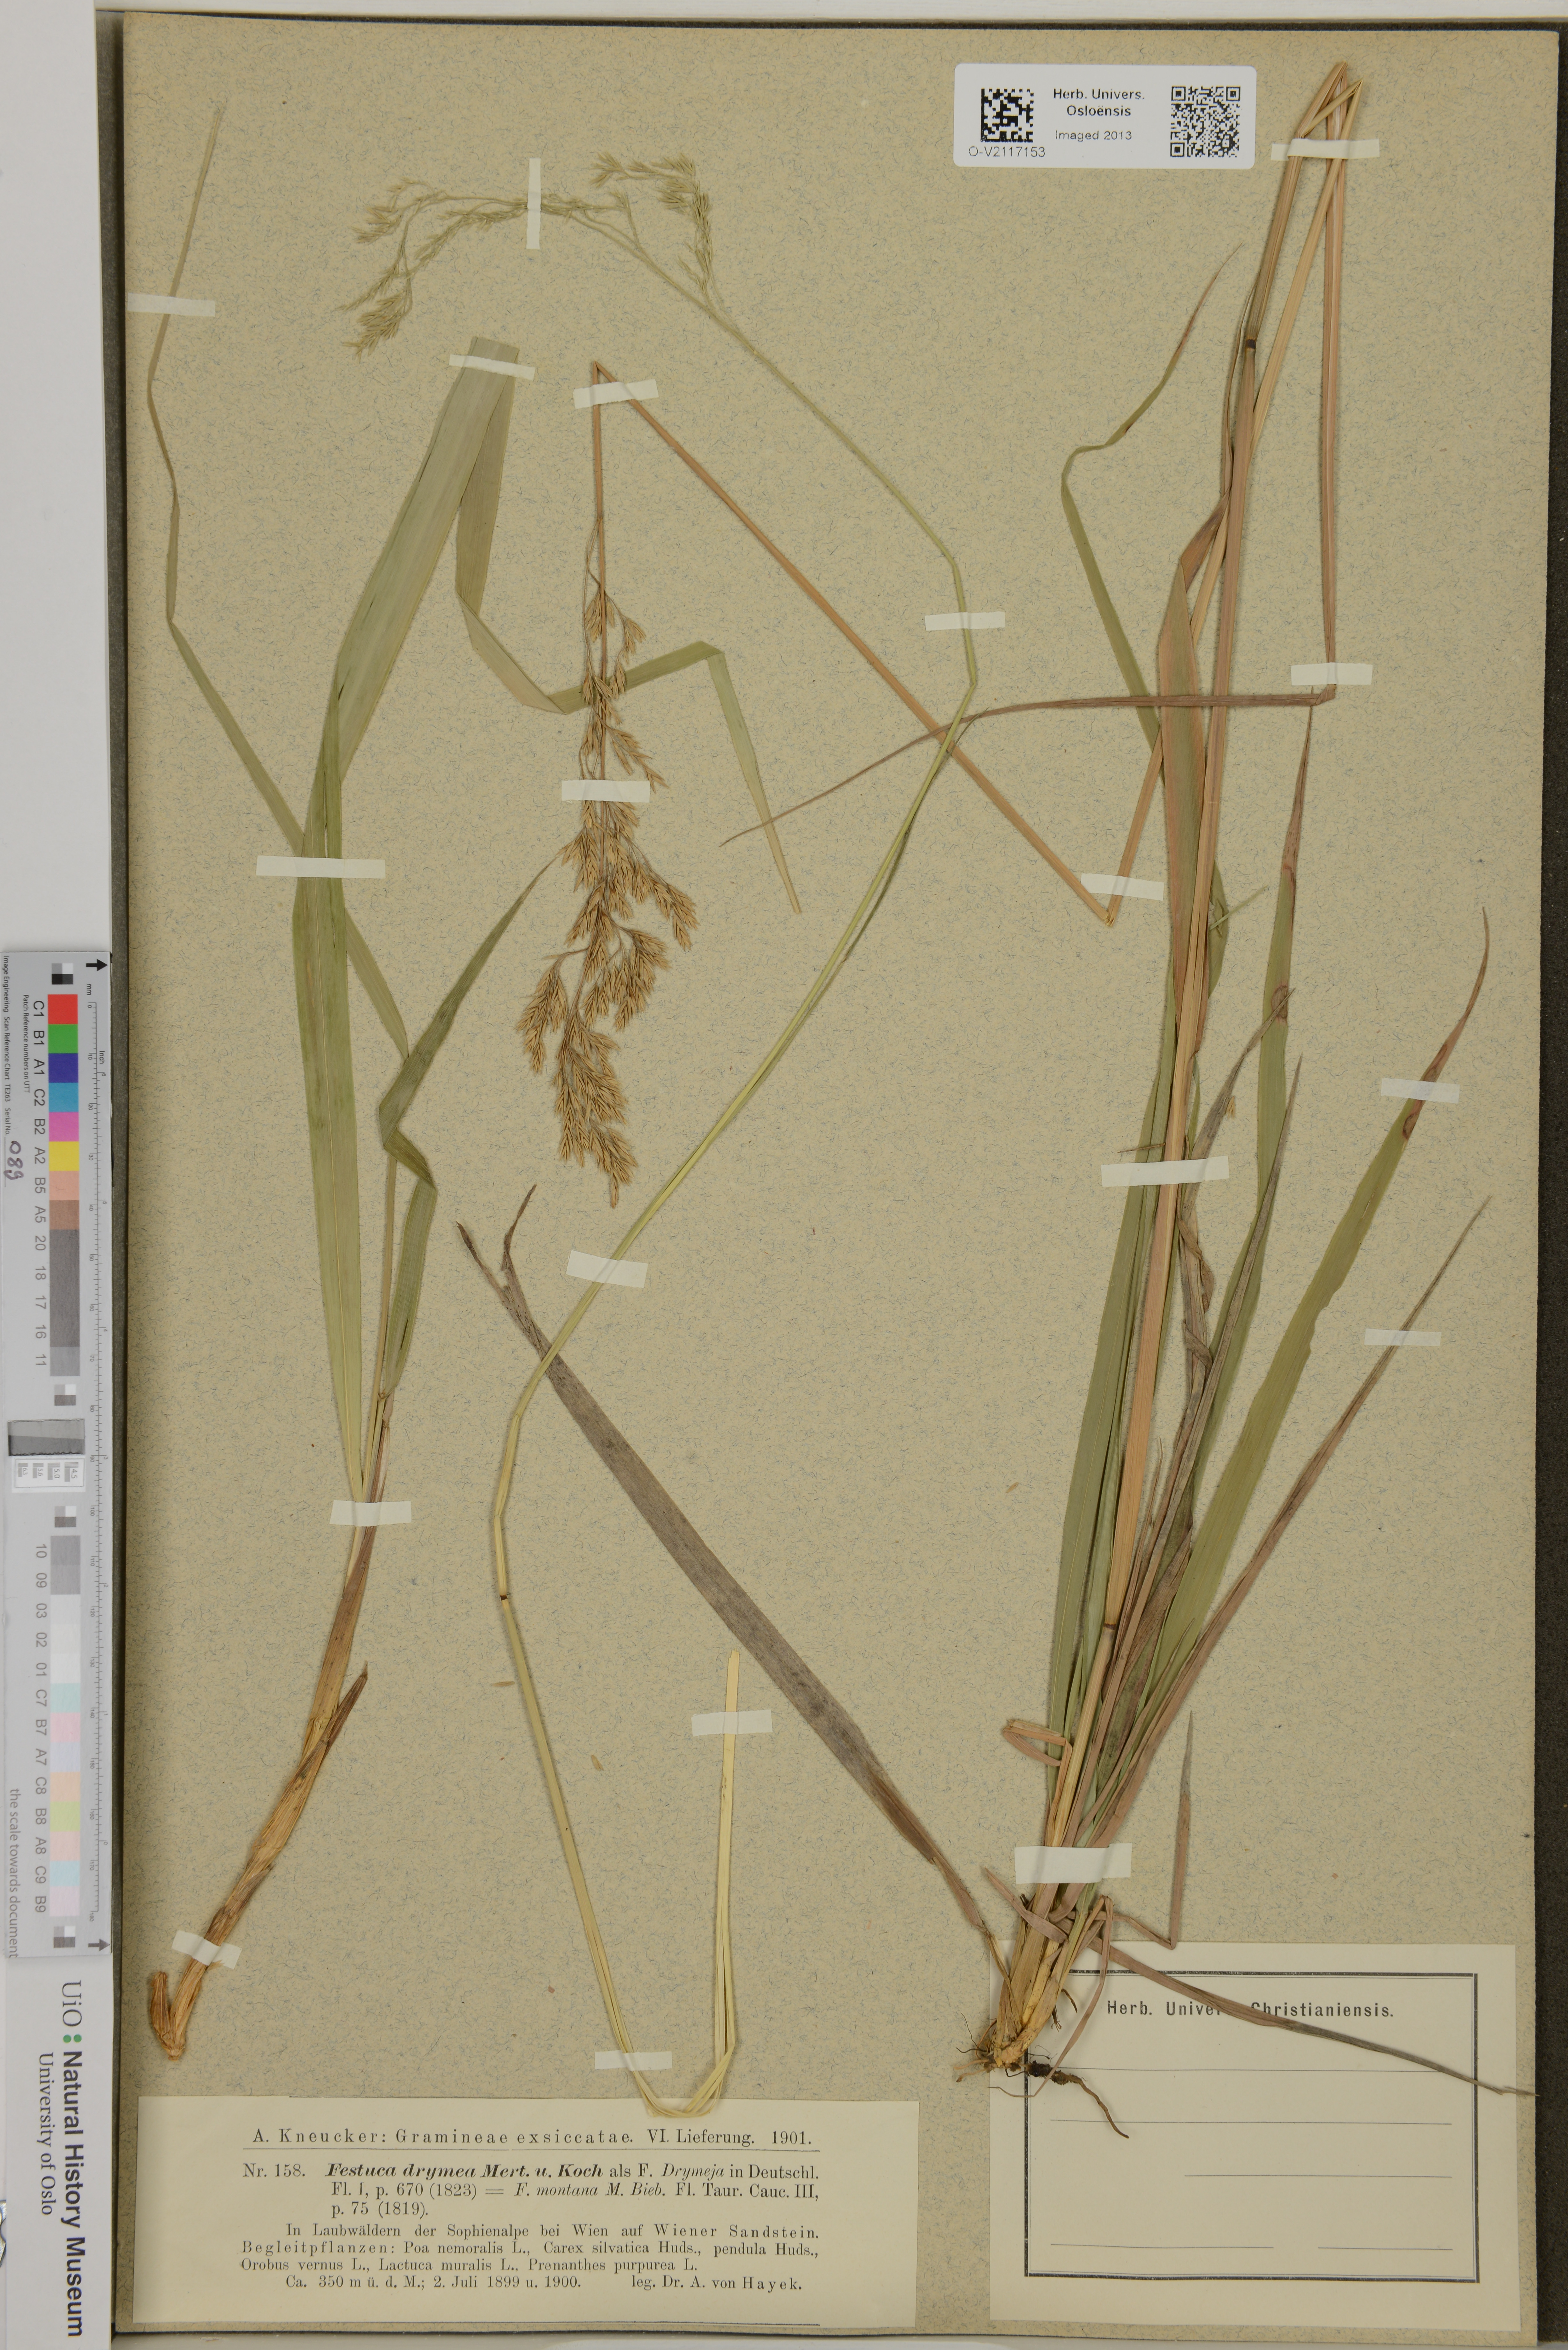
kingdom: Plantae
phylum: Tracheophyta
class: Liliopsida
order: Poales
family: Poaceae
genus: Festuca
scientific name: Festuca drymeja
